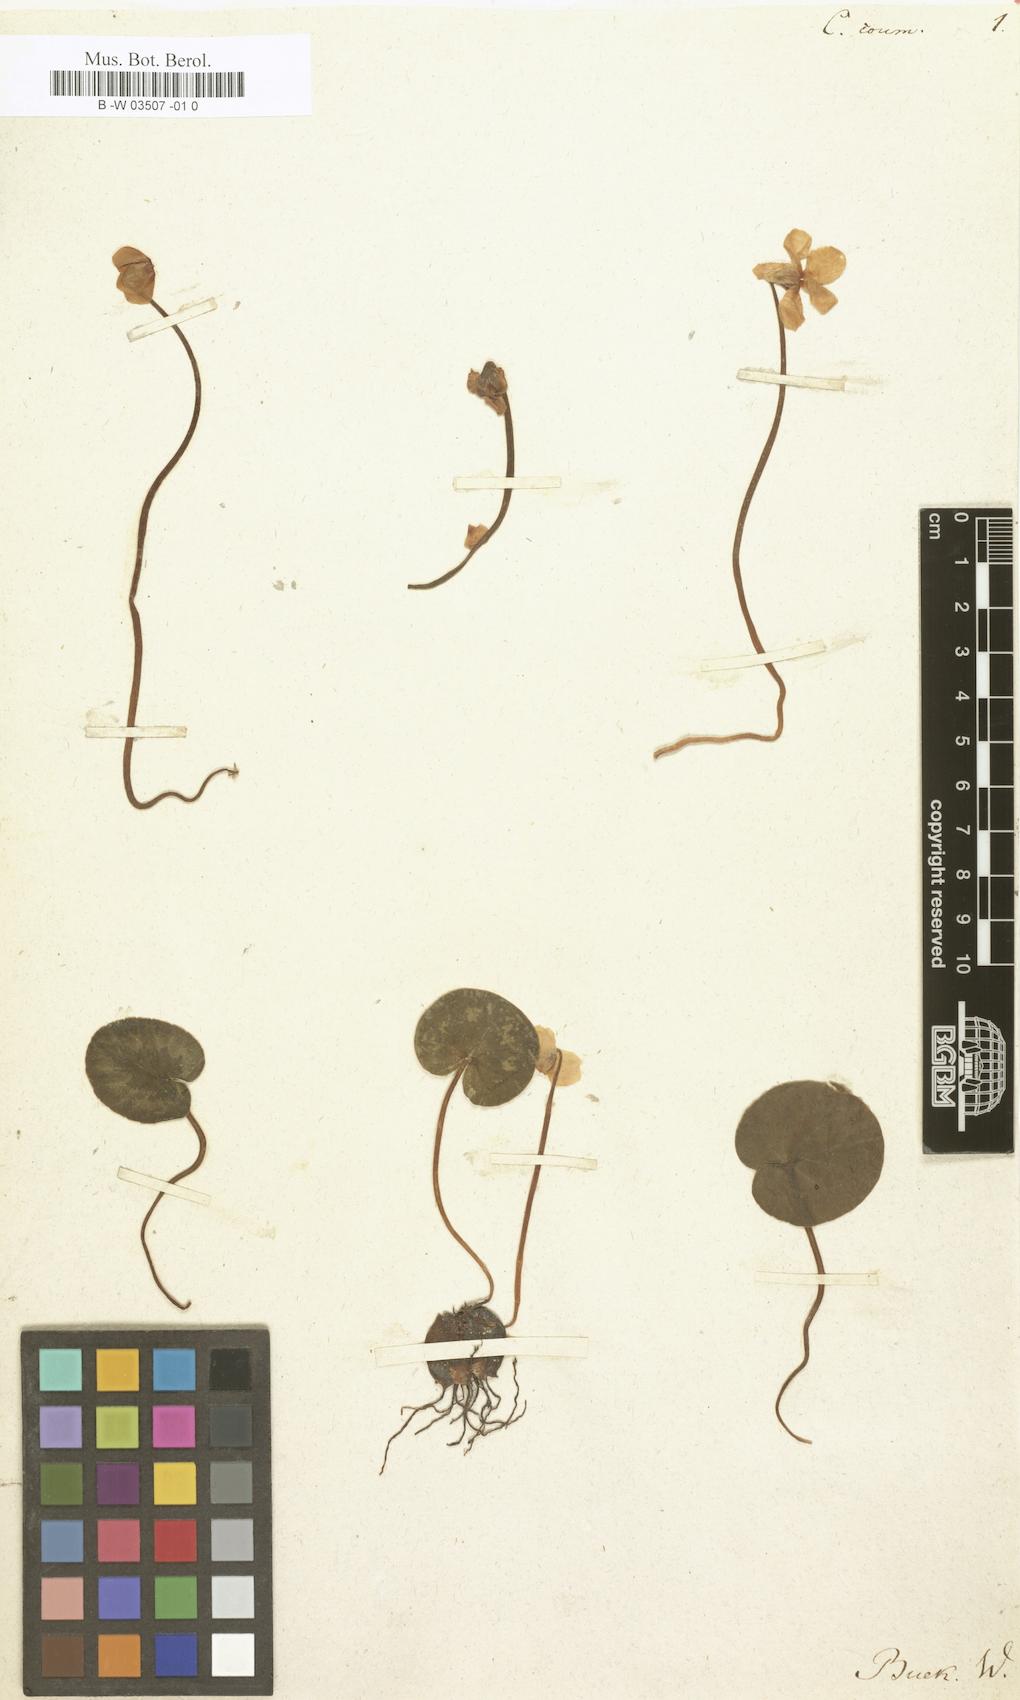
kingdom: Plantae
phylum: Tracheophyta
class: Magnoliopsida
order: Ericales
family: Primulaceae
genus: Cyclamen
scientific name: Cyclamen coum
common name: Eastern sowbread
